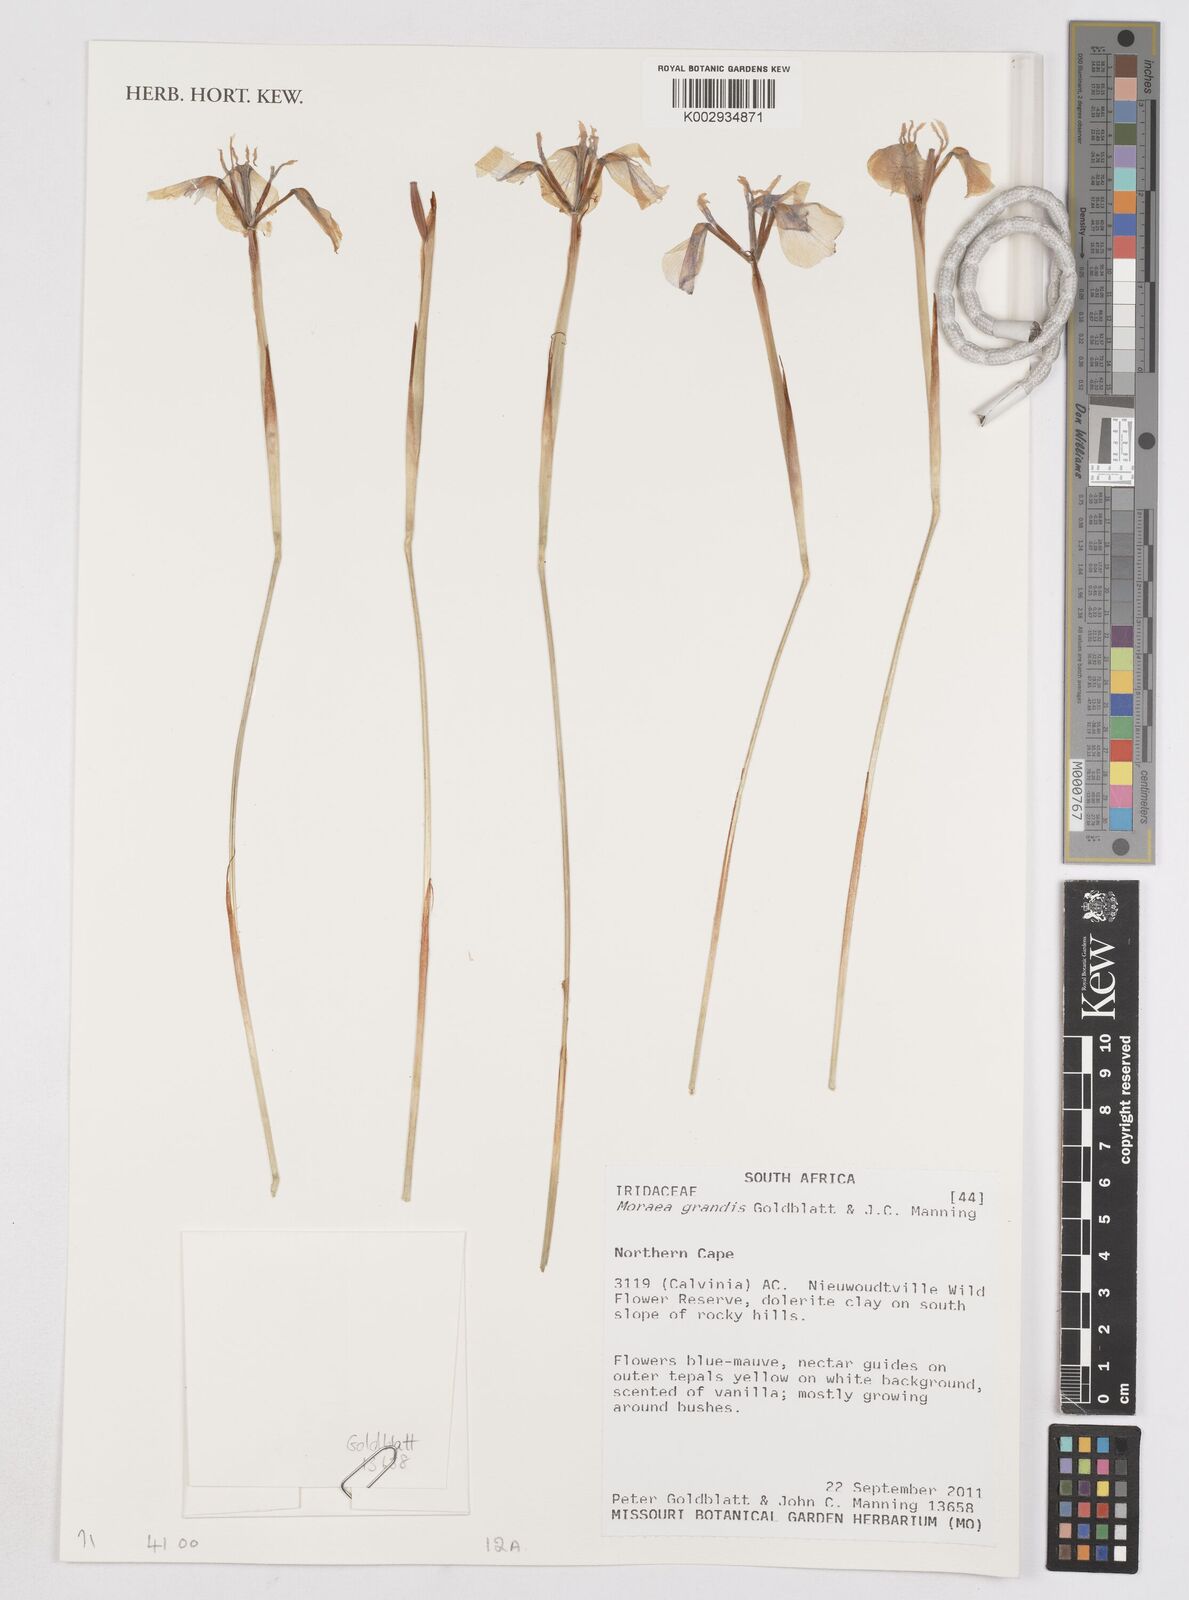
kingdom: Plantae
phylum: Tracheophyta
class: Liliopsida
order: Asparagales
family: Iridaceae
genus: Moraea
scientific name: Moraea grandis
